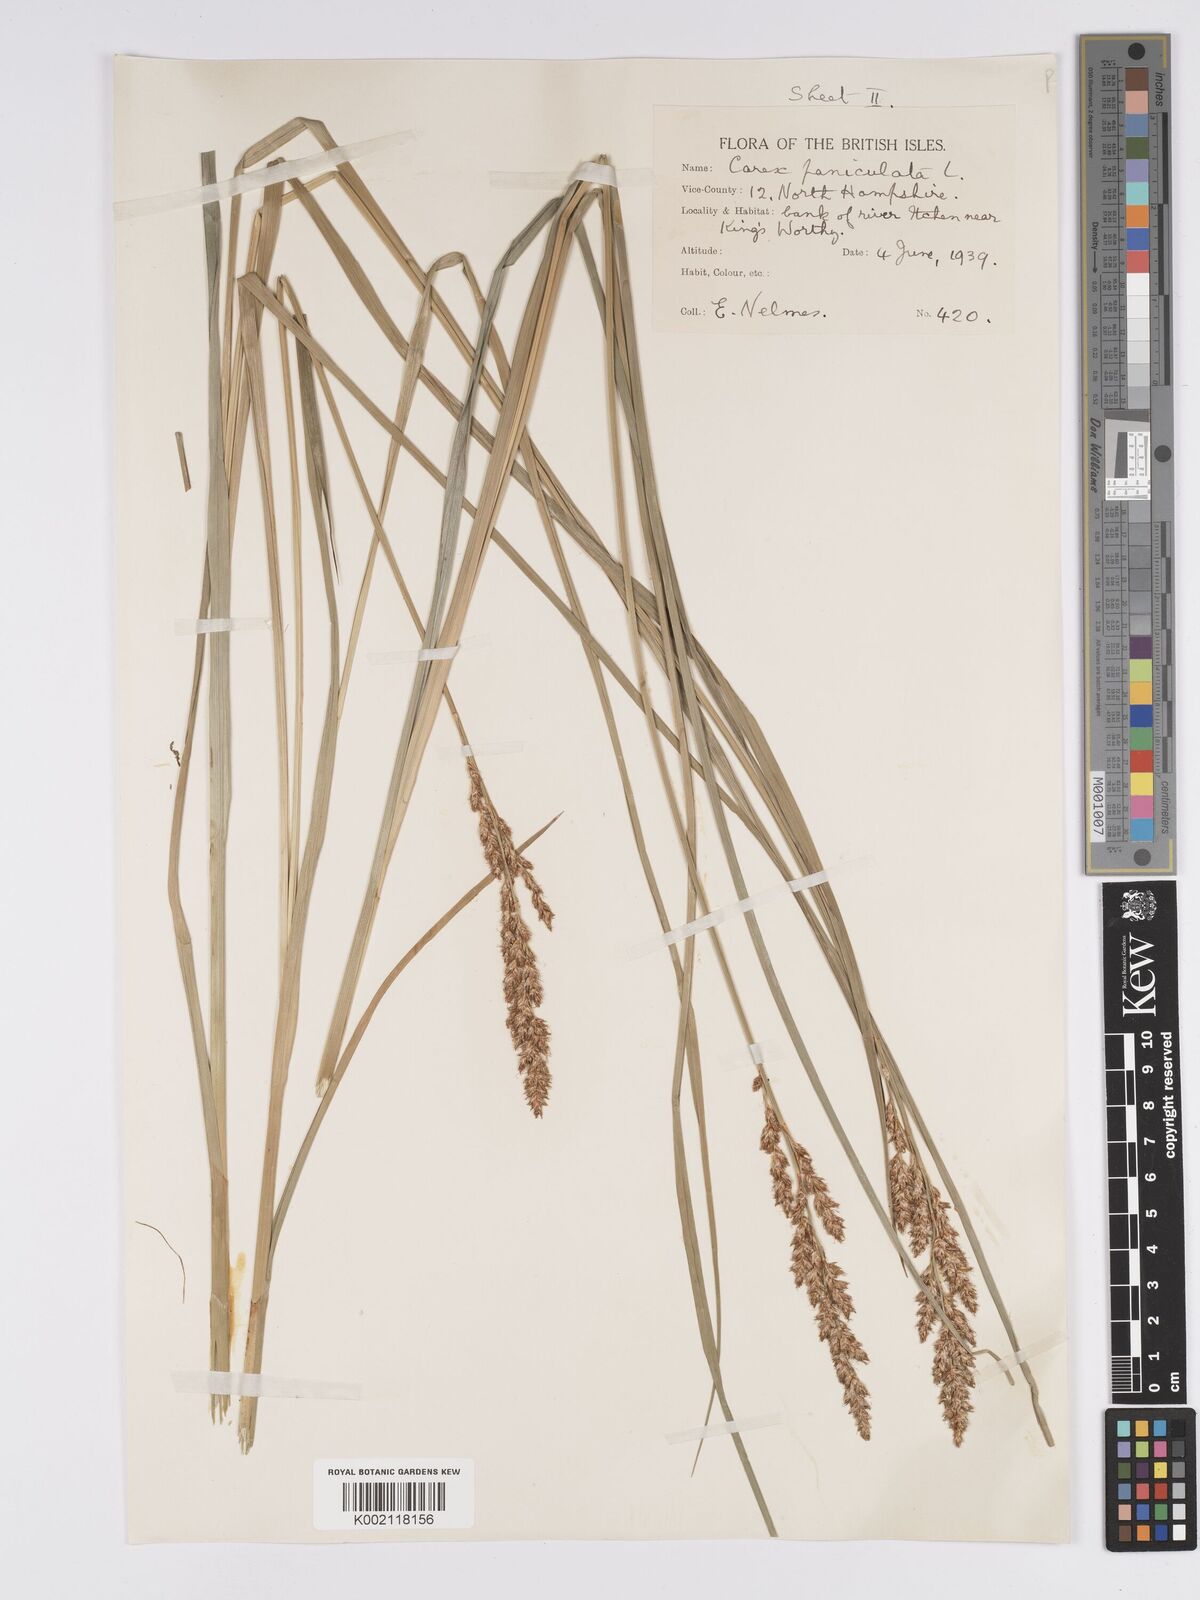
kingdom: Plantae
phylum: Tracheophyta
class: Liliopsida
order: Poales
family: Cyperaceae
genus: Carex
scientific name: Carex paniculata
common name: Greater tussock-sedge
